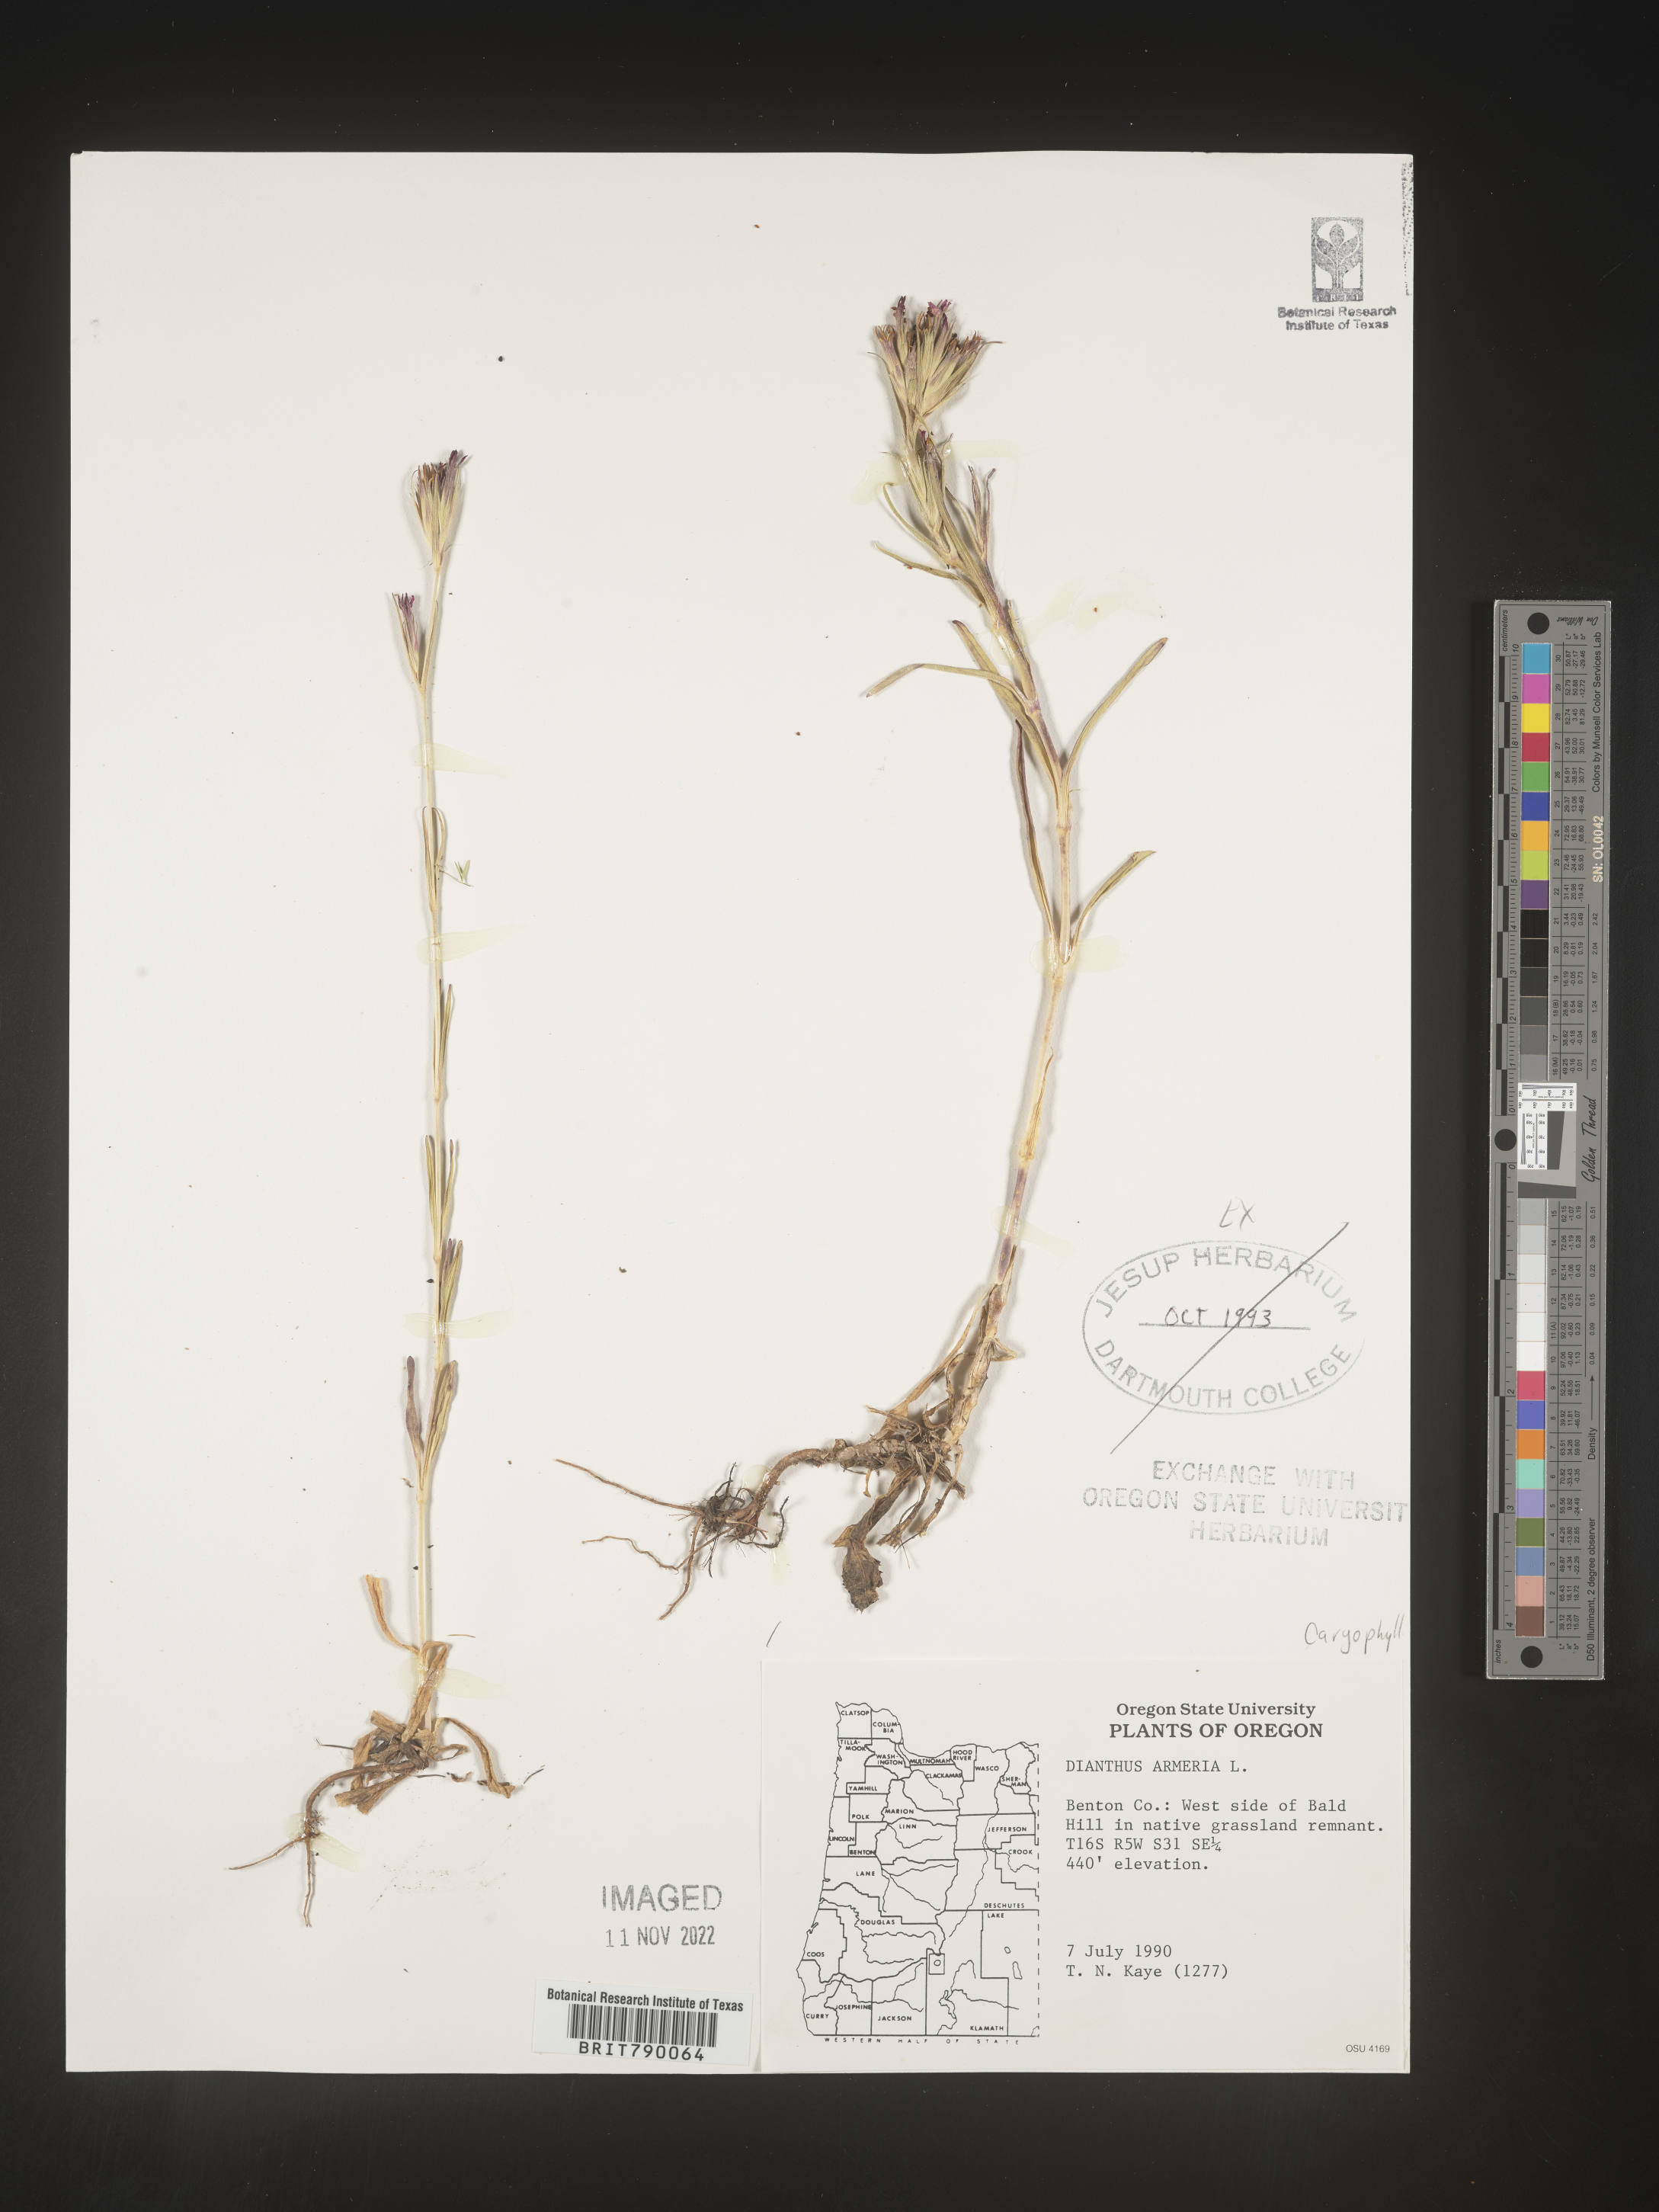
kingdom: Plantae
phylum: Tracheophyta
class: Magnoliopsida
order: Caryophyllales
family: Caryophyllaceae
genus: Dianthus
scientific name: Dianthus armeria
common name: Deptford pink
